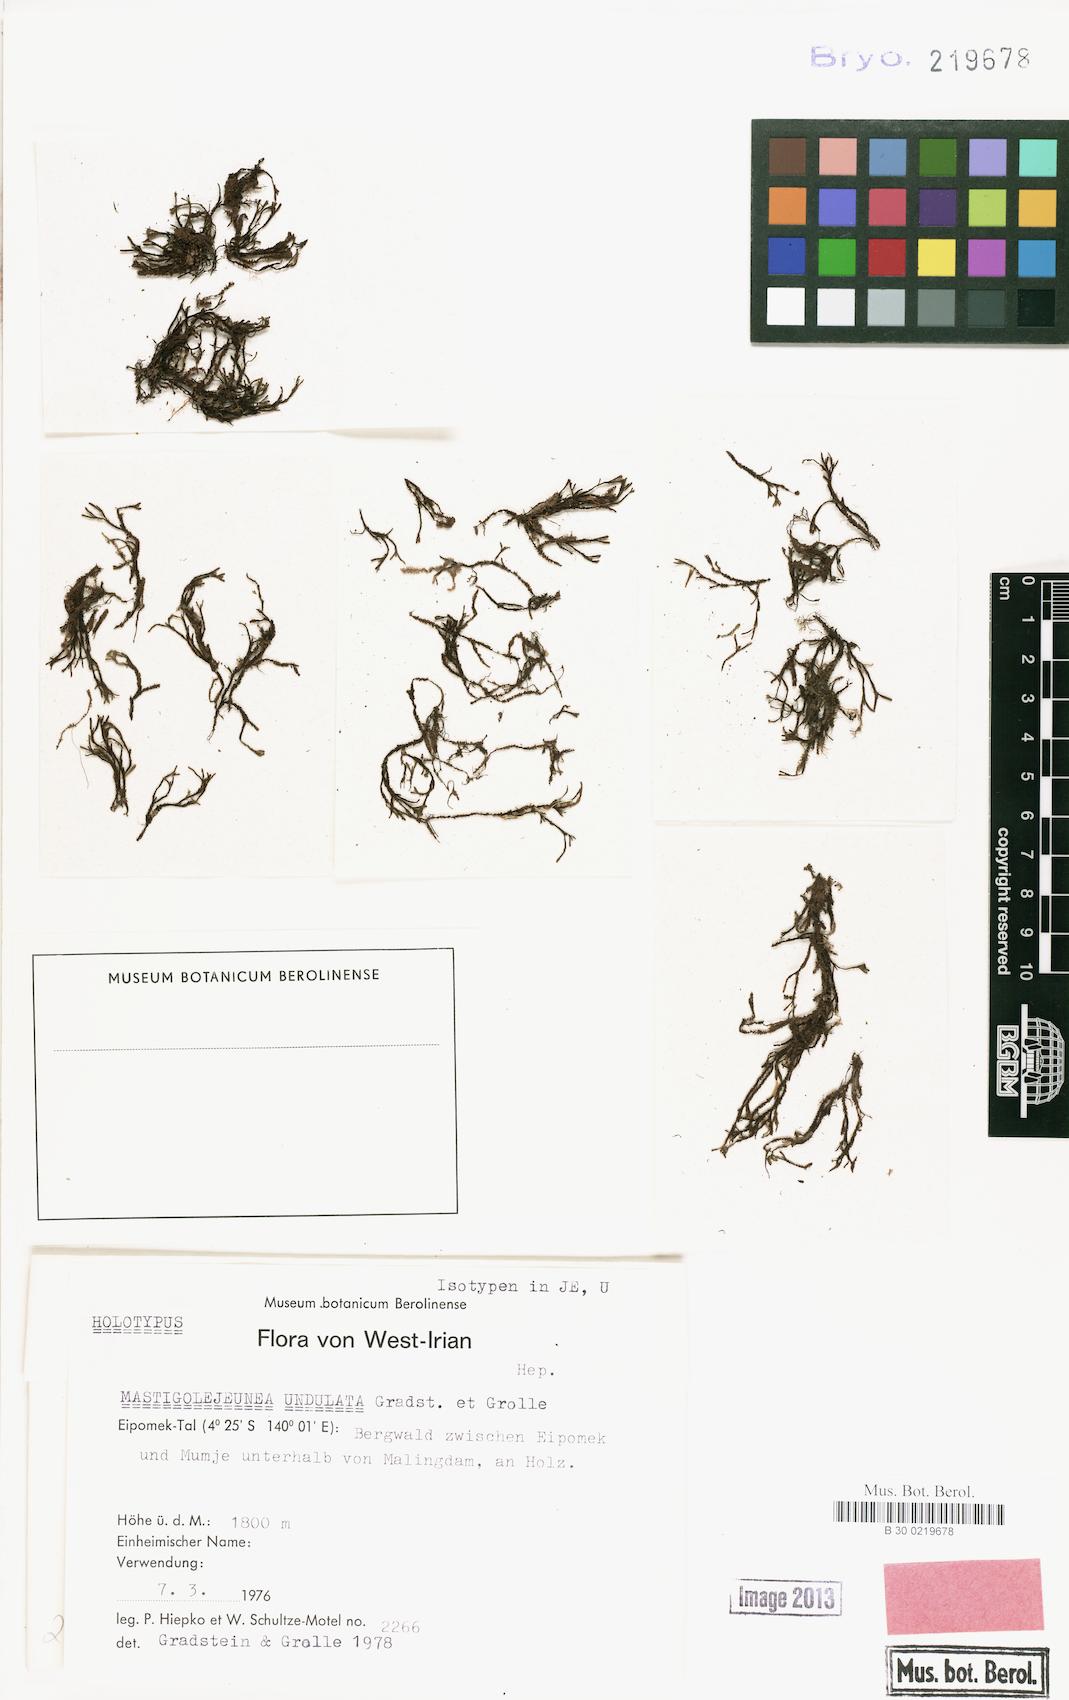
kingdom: Plantae
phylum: Marchantiophyta
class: Jungermanniopsida
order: Porellales
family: Lejeuneaceae
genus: Thysananthus
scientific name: Thysananthus frauenfeldii
